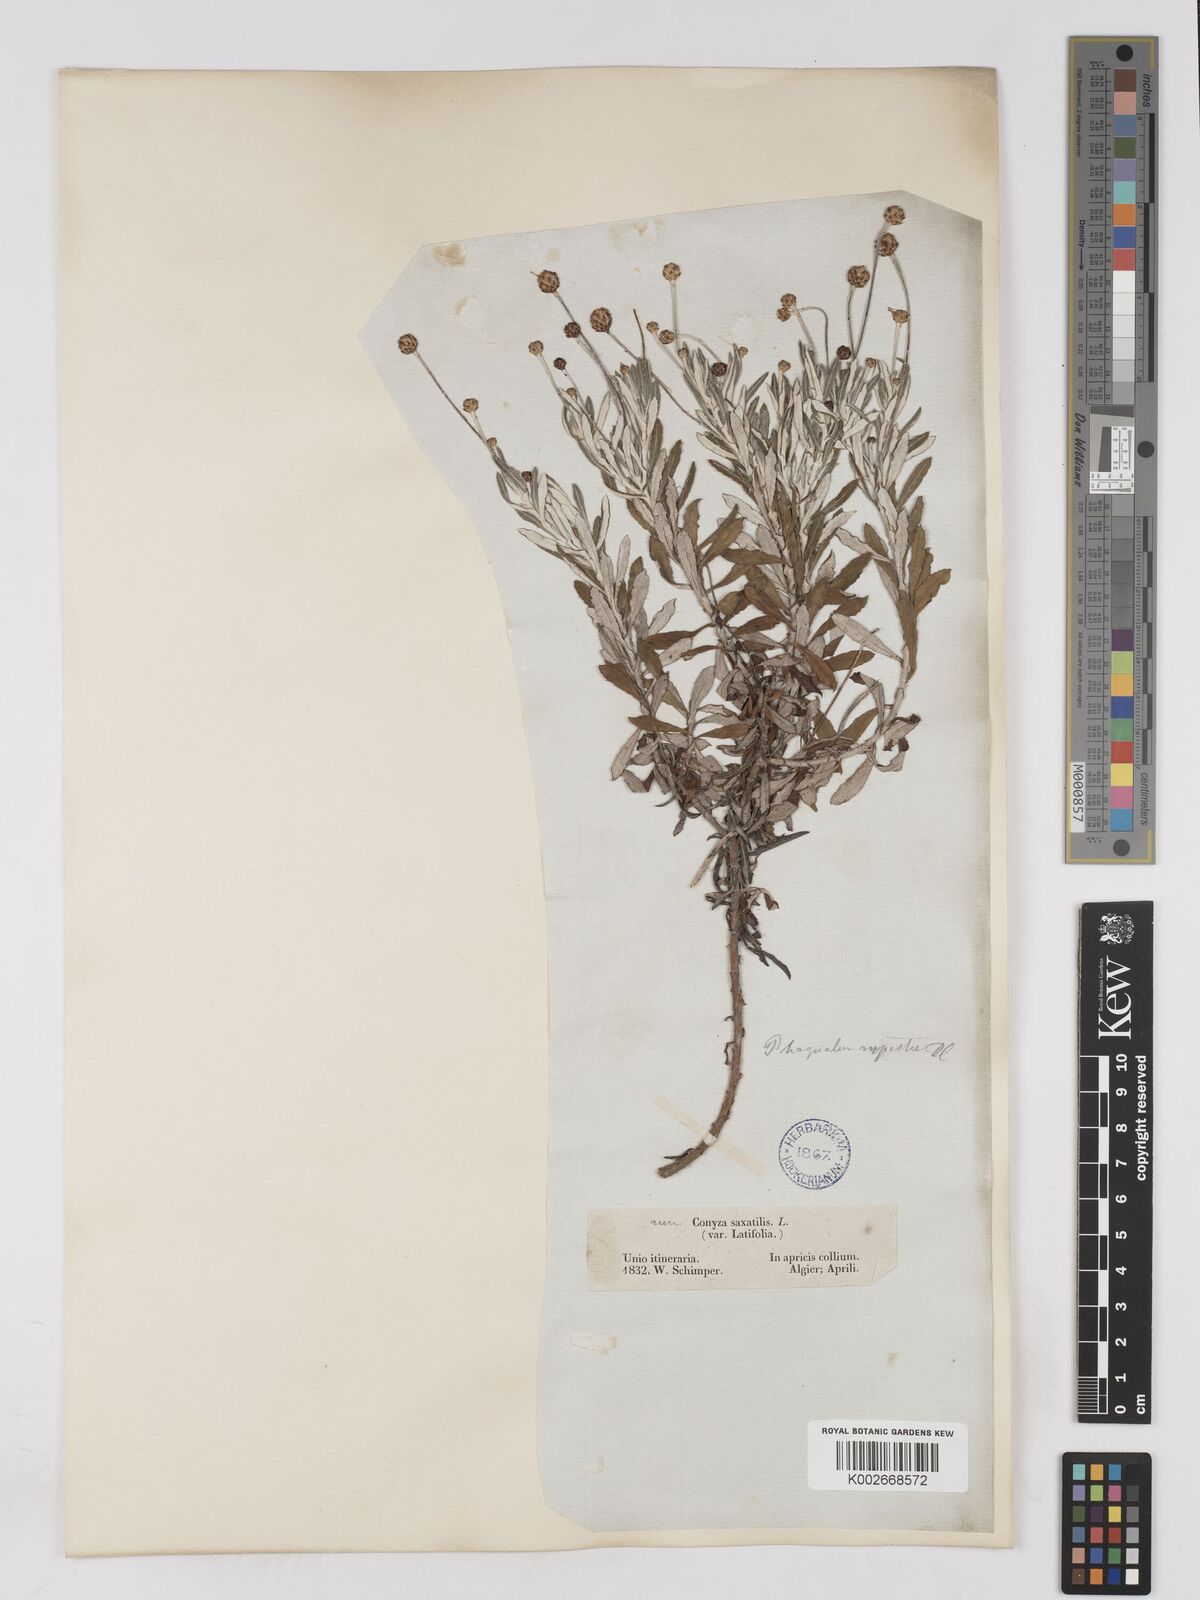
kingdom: Plantae
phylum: Tracheophyta
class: Magnoliopsida
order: Asterales
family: Asteraceae
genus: Phagnalon
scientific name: Phagnalon rupestre
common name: Rock phagnalon
